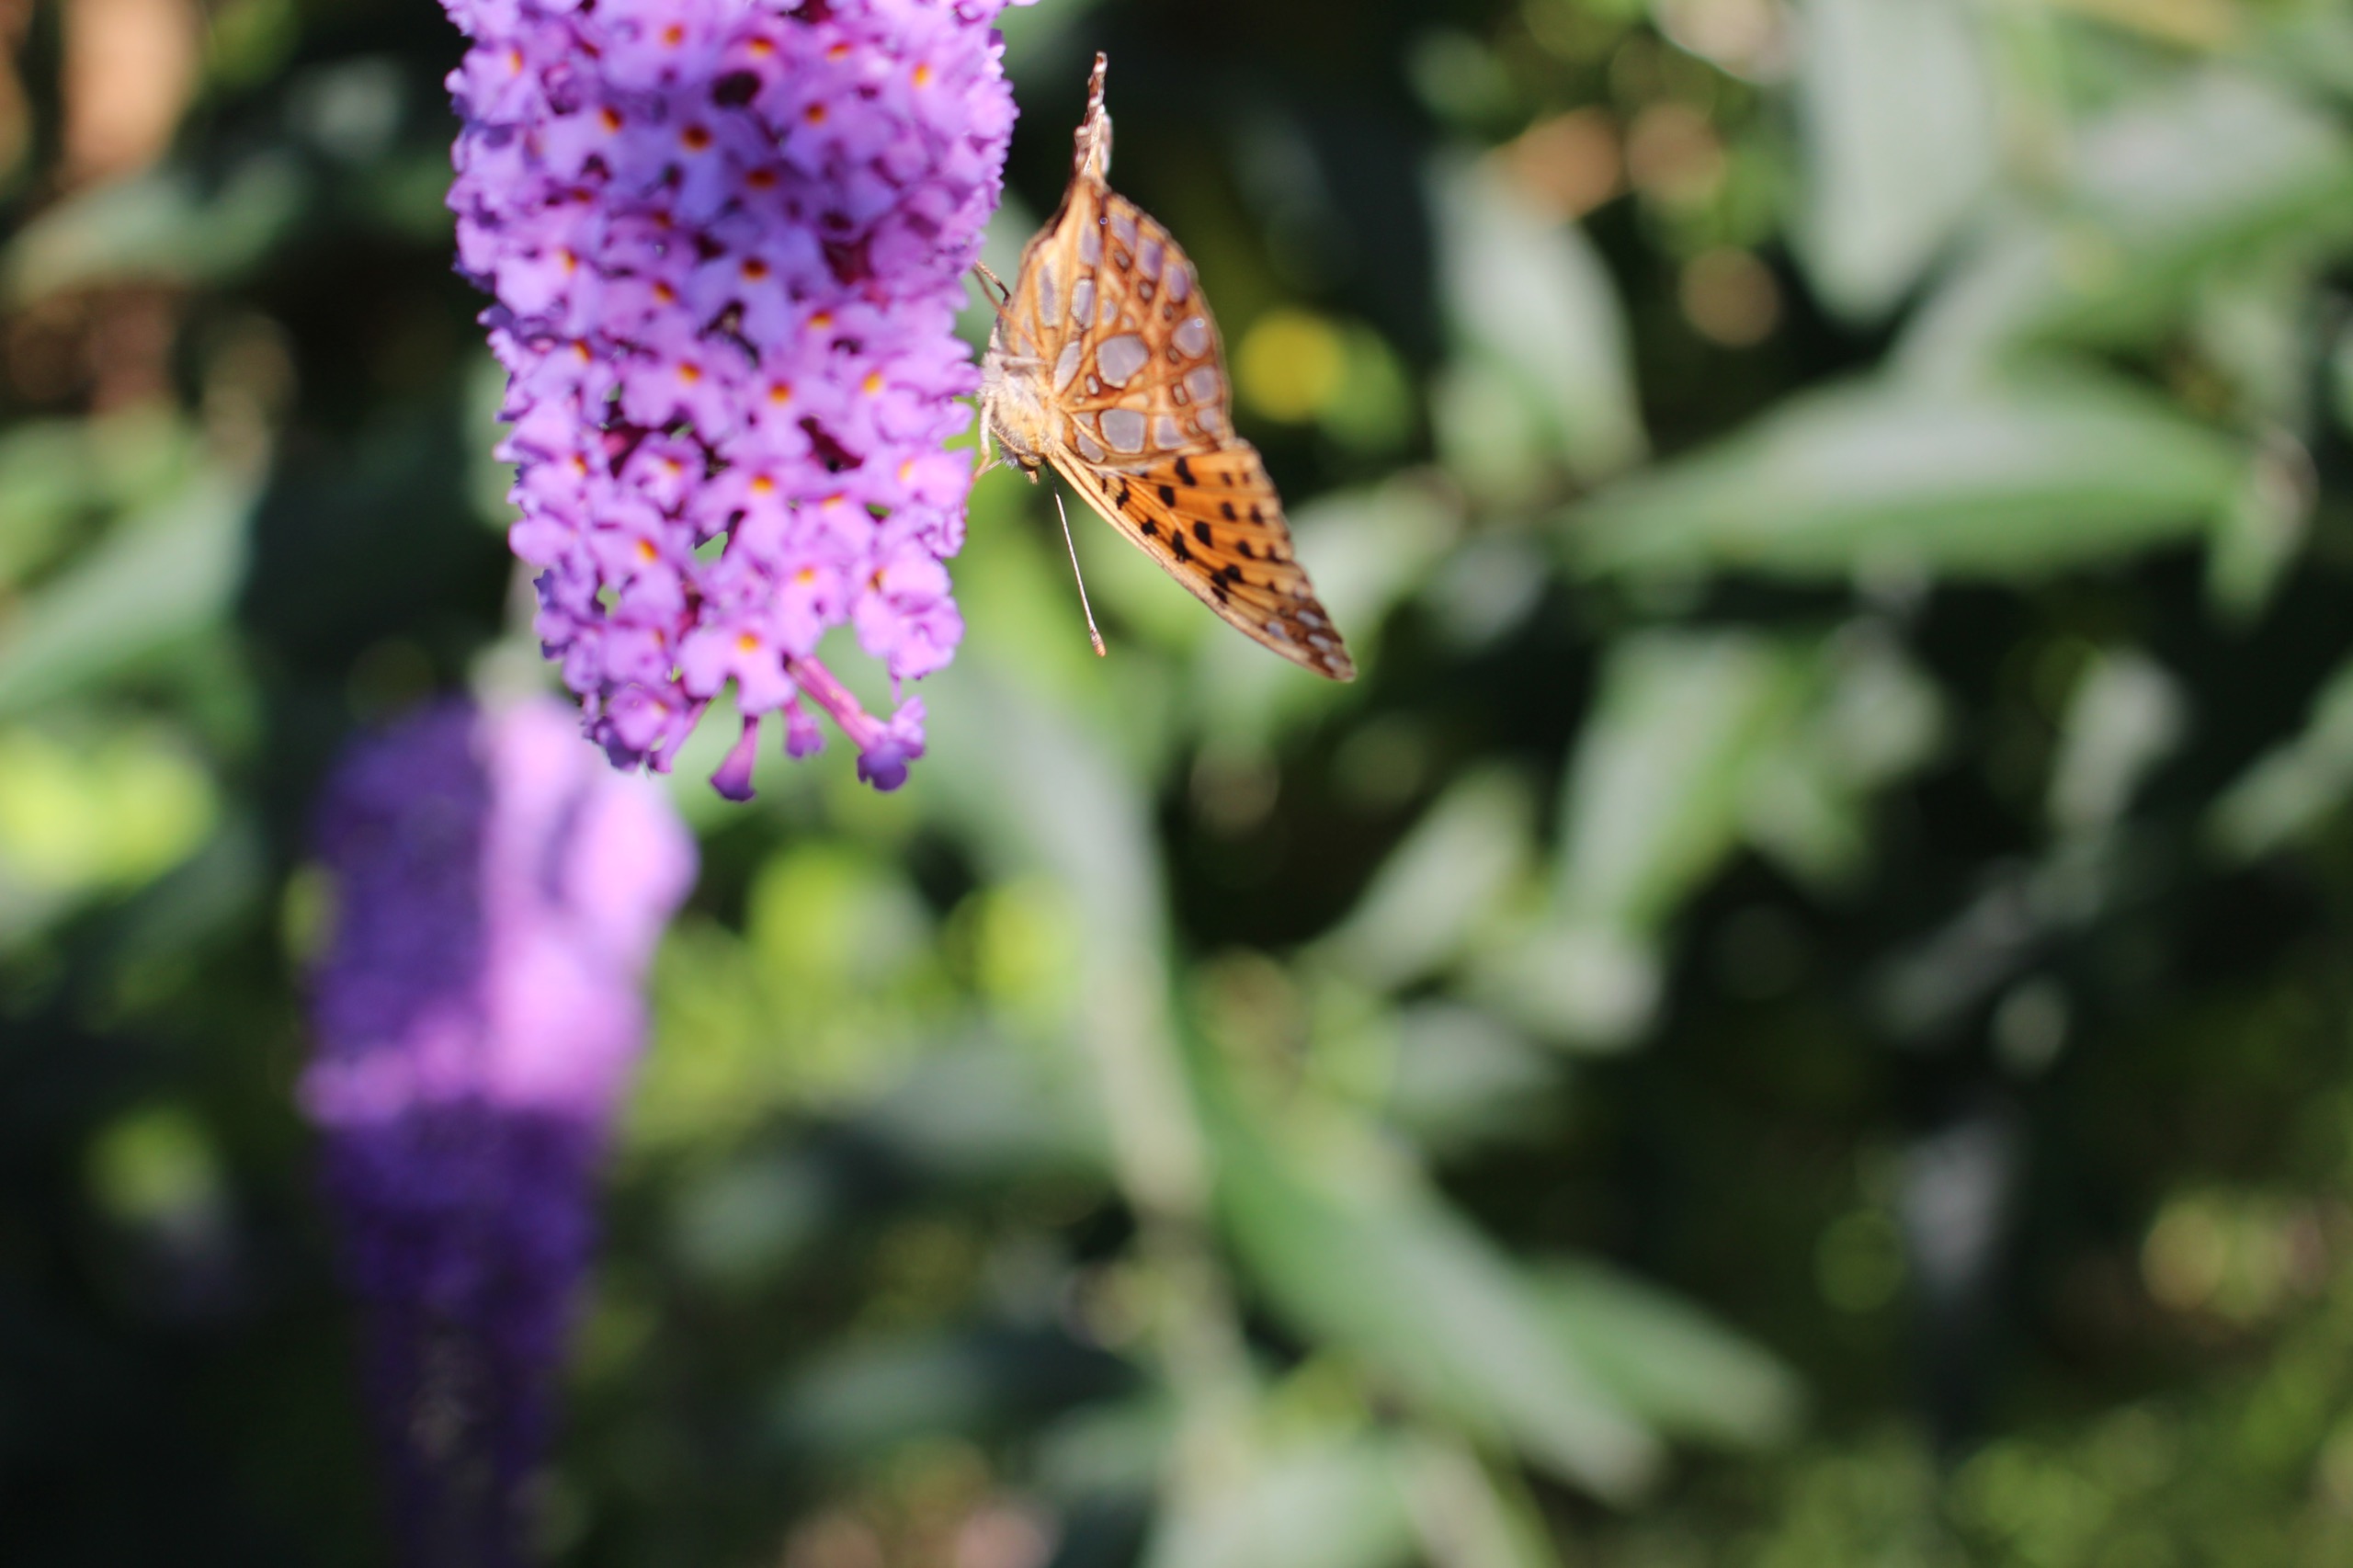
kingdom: Animalia
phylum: Arthropoda
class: Insecta
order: Lepidoptera
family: Nymphalidae
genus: Issoria
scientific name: Issoria lathonia
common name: Storplettet perlemorsommerfugl
